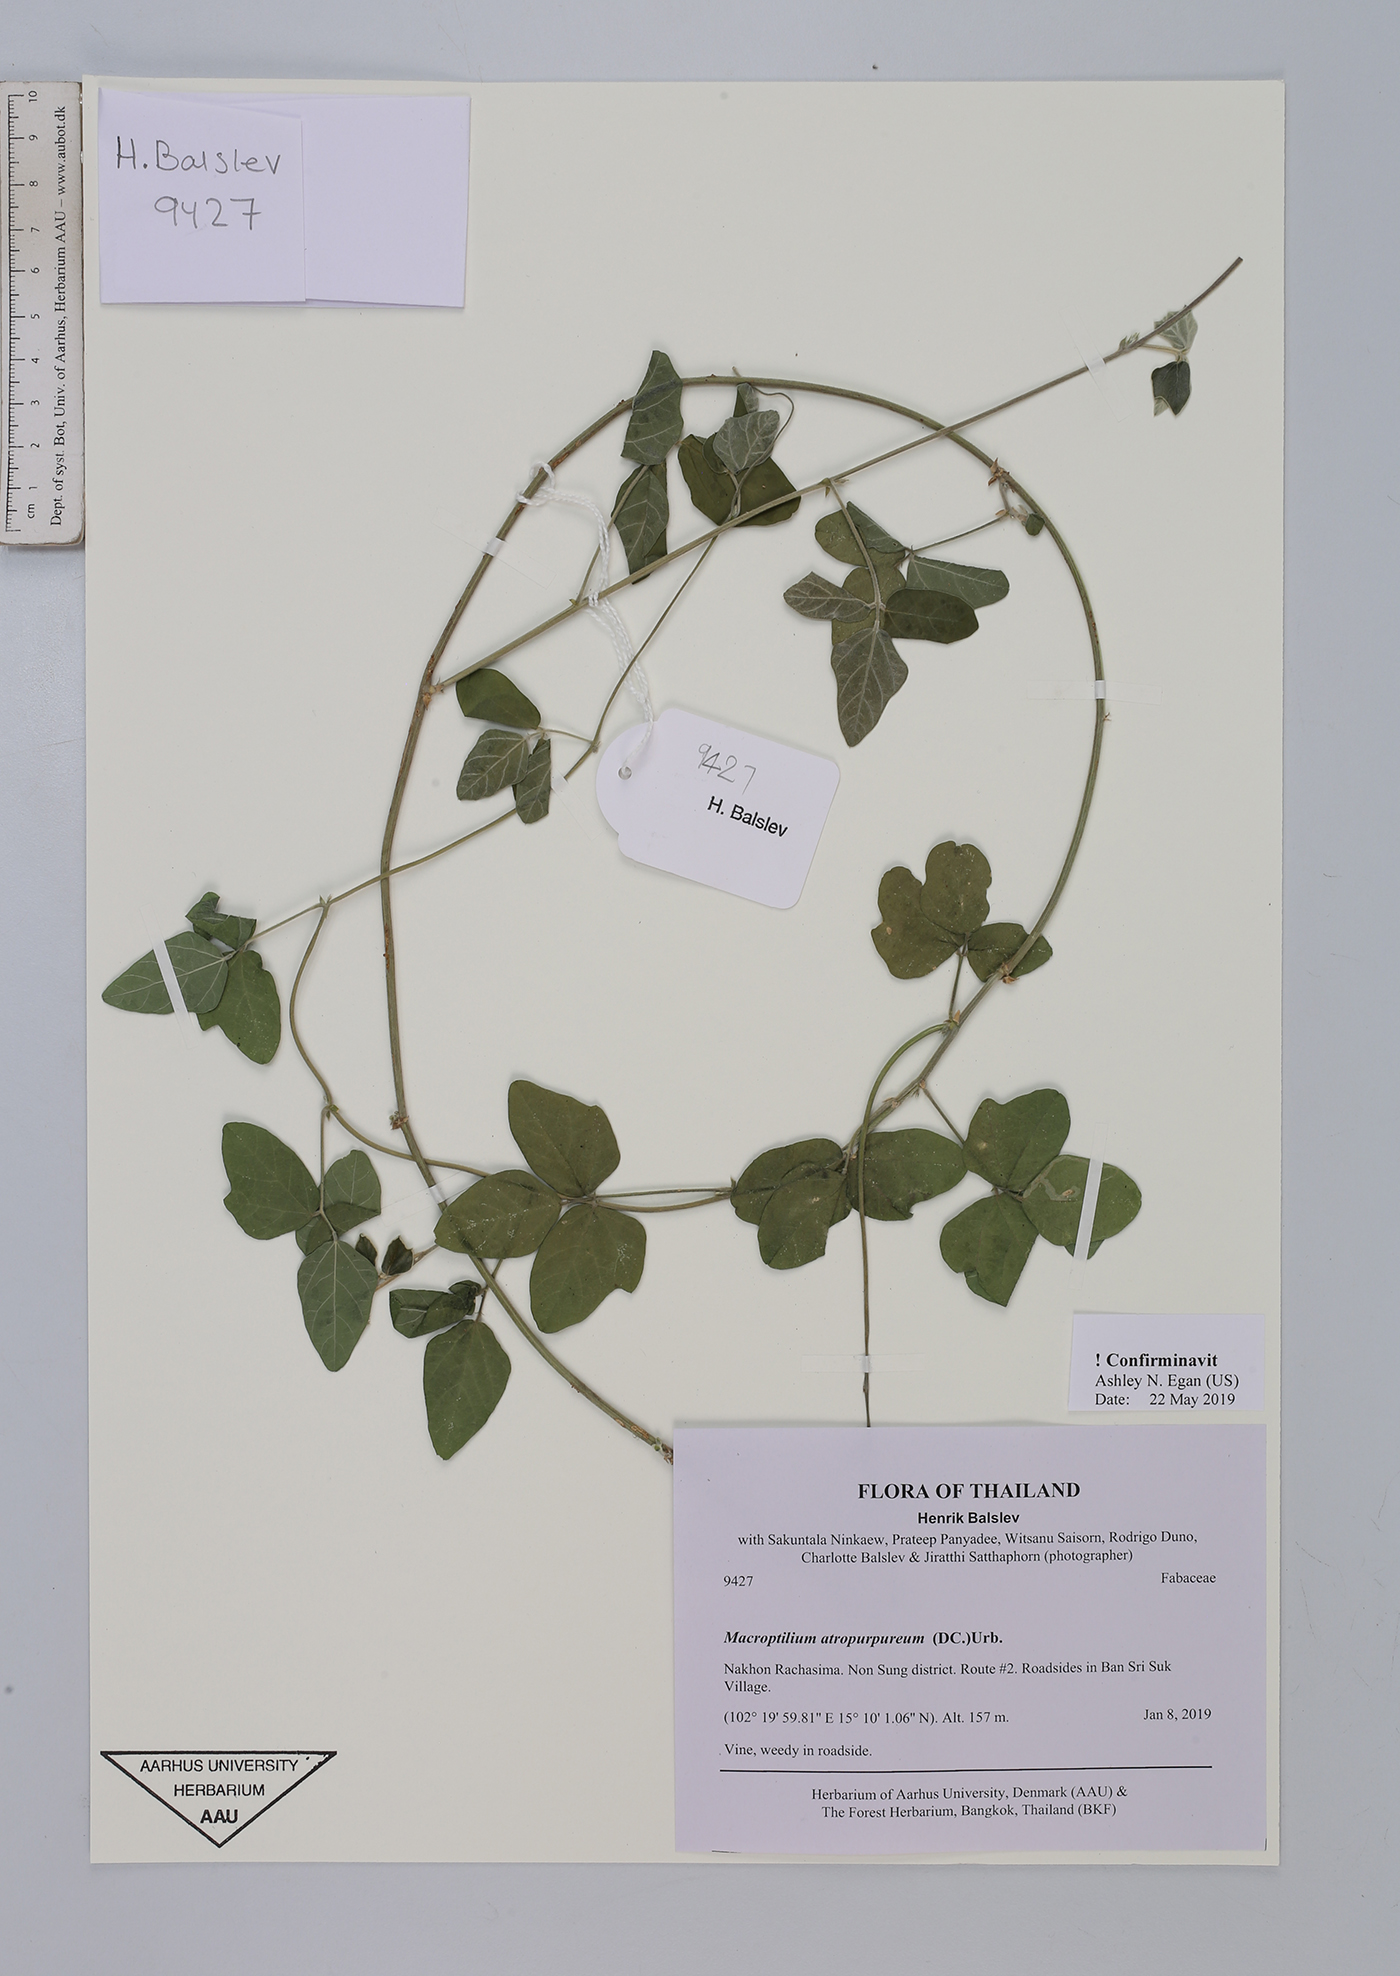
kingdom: Plantae
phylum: Tracheophyta
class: Magnoliopsida
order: Fabales
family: Fabaceae
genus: Macroptilium
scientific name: Macroptilium atropurpureum
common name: Purple bushbean
